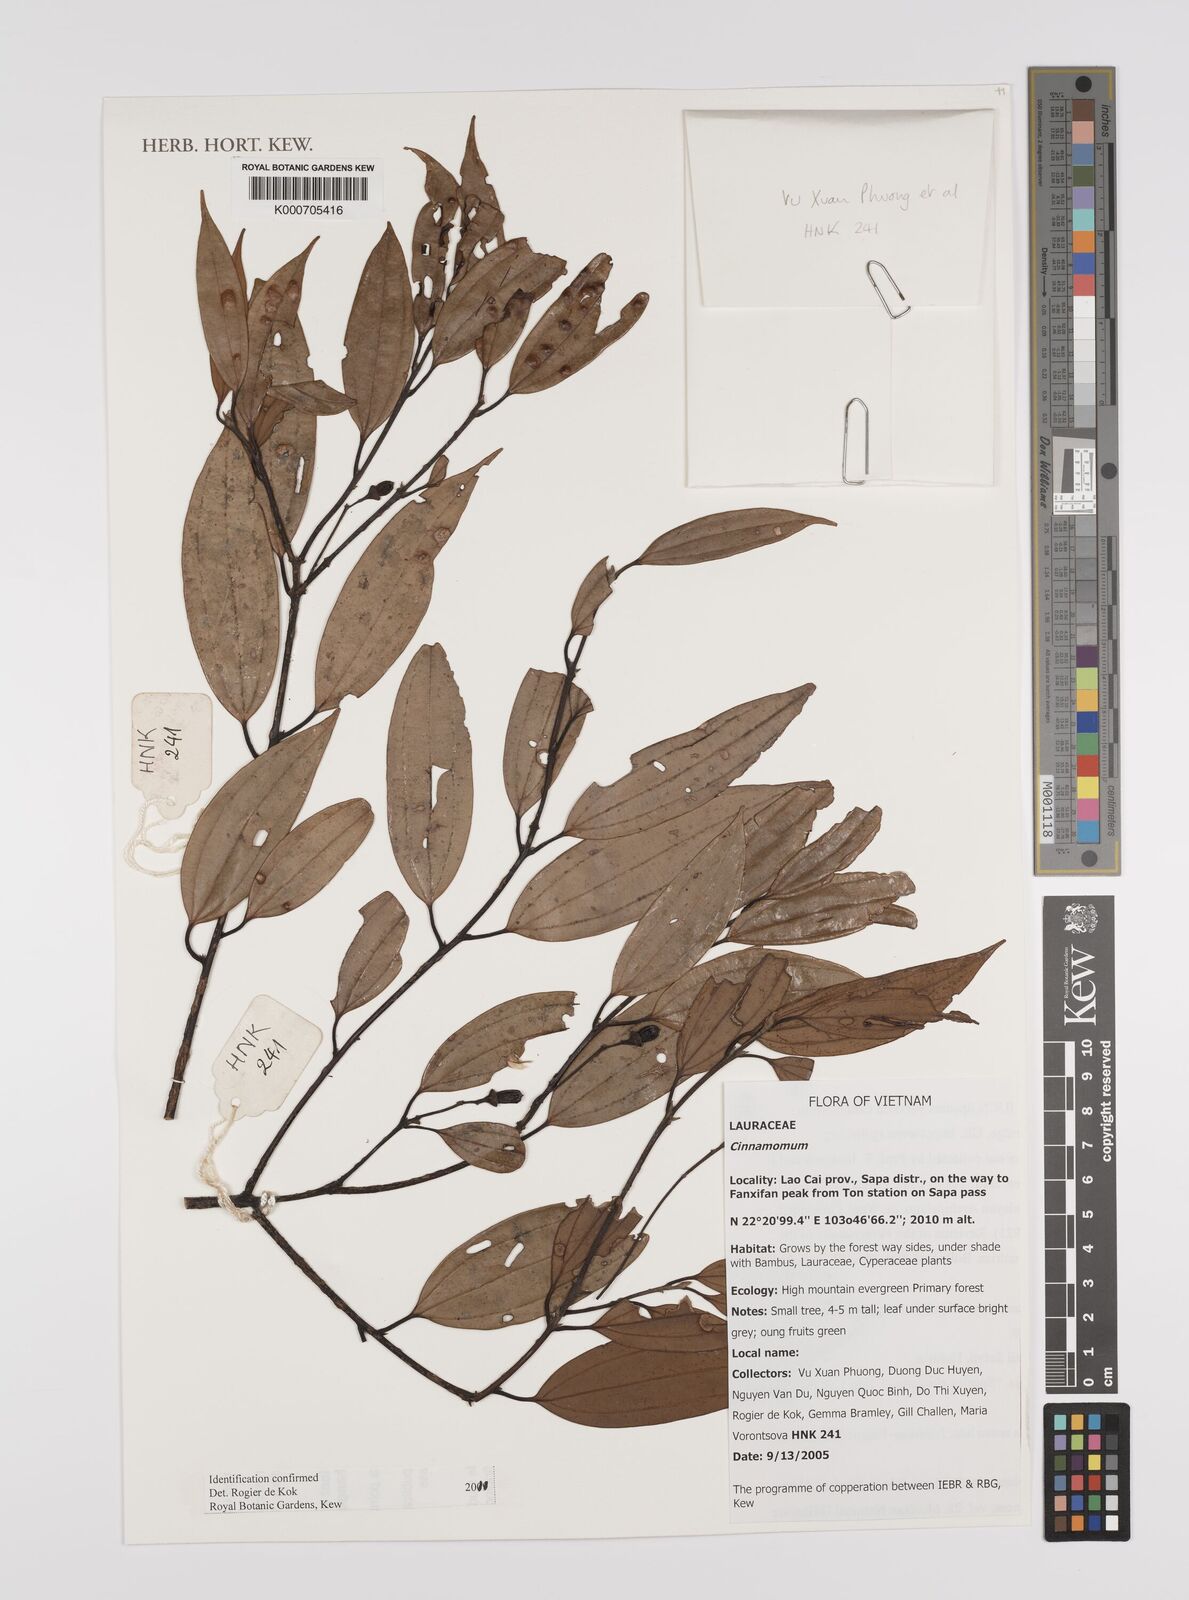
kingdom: Plantae
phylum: Tracheophyta
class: Magnoliopsida
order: Laurales
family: Lauraceae
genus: Cinnamomum
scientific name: Cinnamomum
